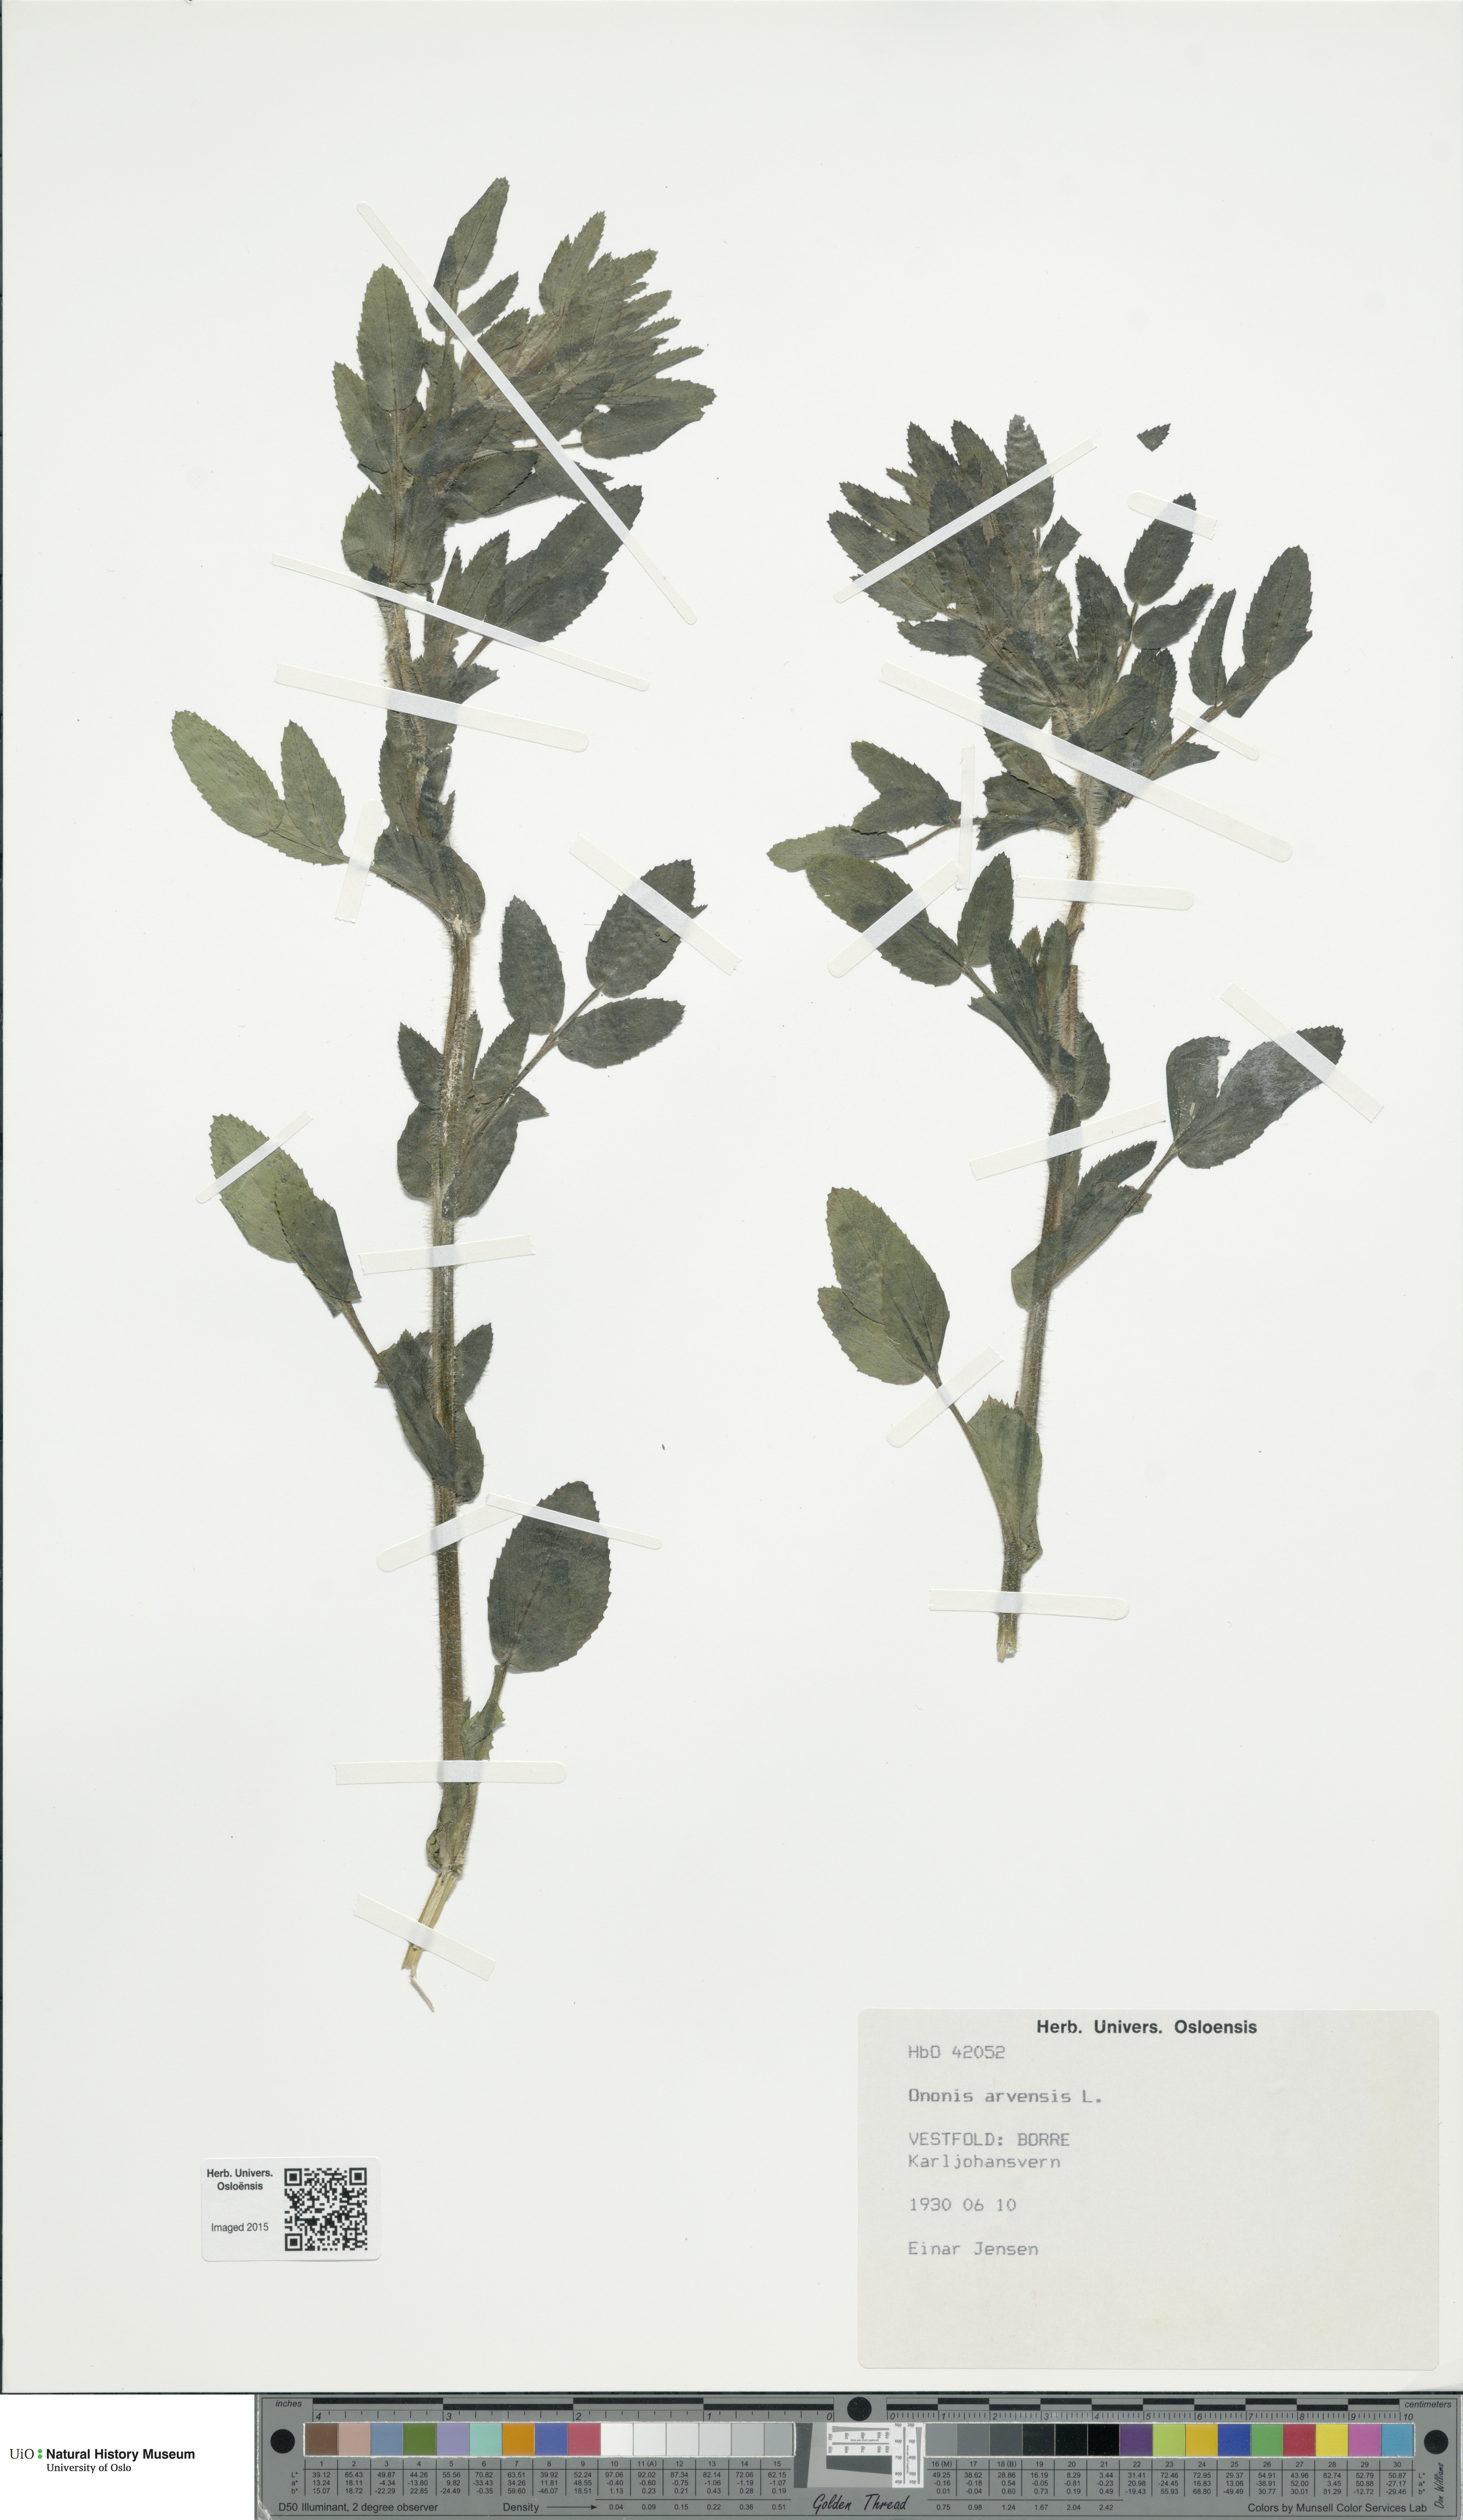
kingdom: Plantae
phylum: Tracheophyta
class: Magnoliopsida
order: Fabales
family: Fabaceae
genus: Ononis
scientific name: Ononis arvensis
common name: Field restharrow
